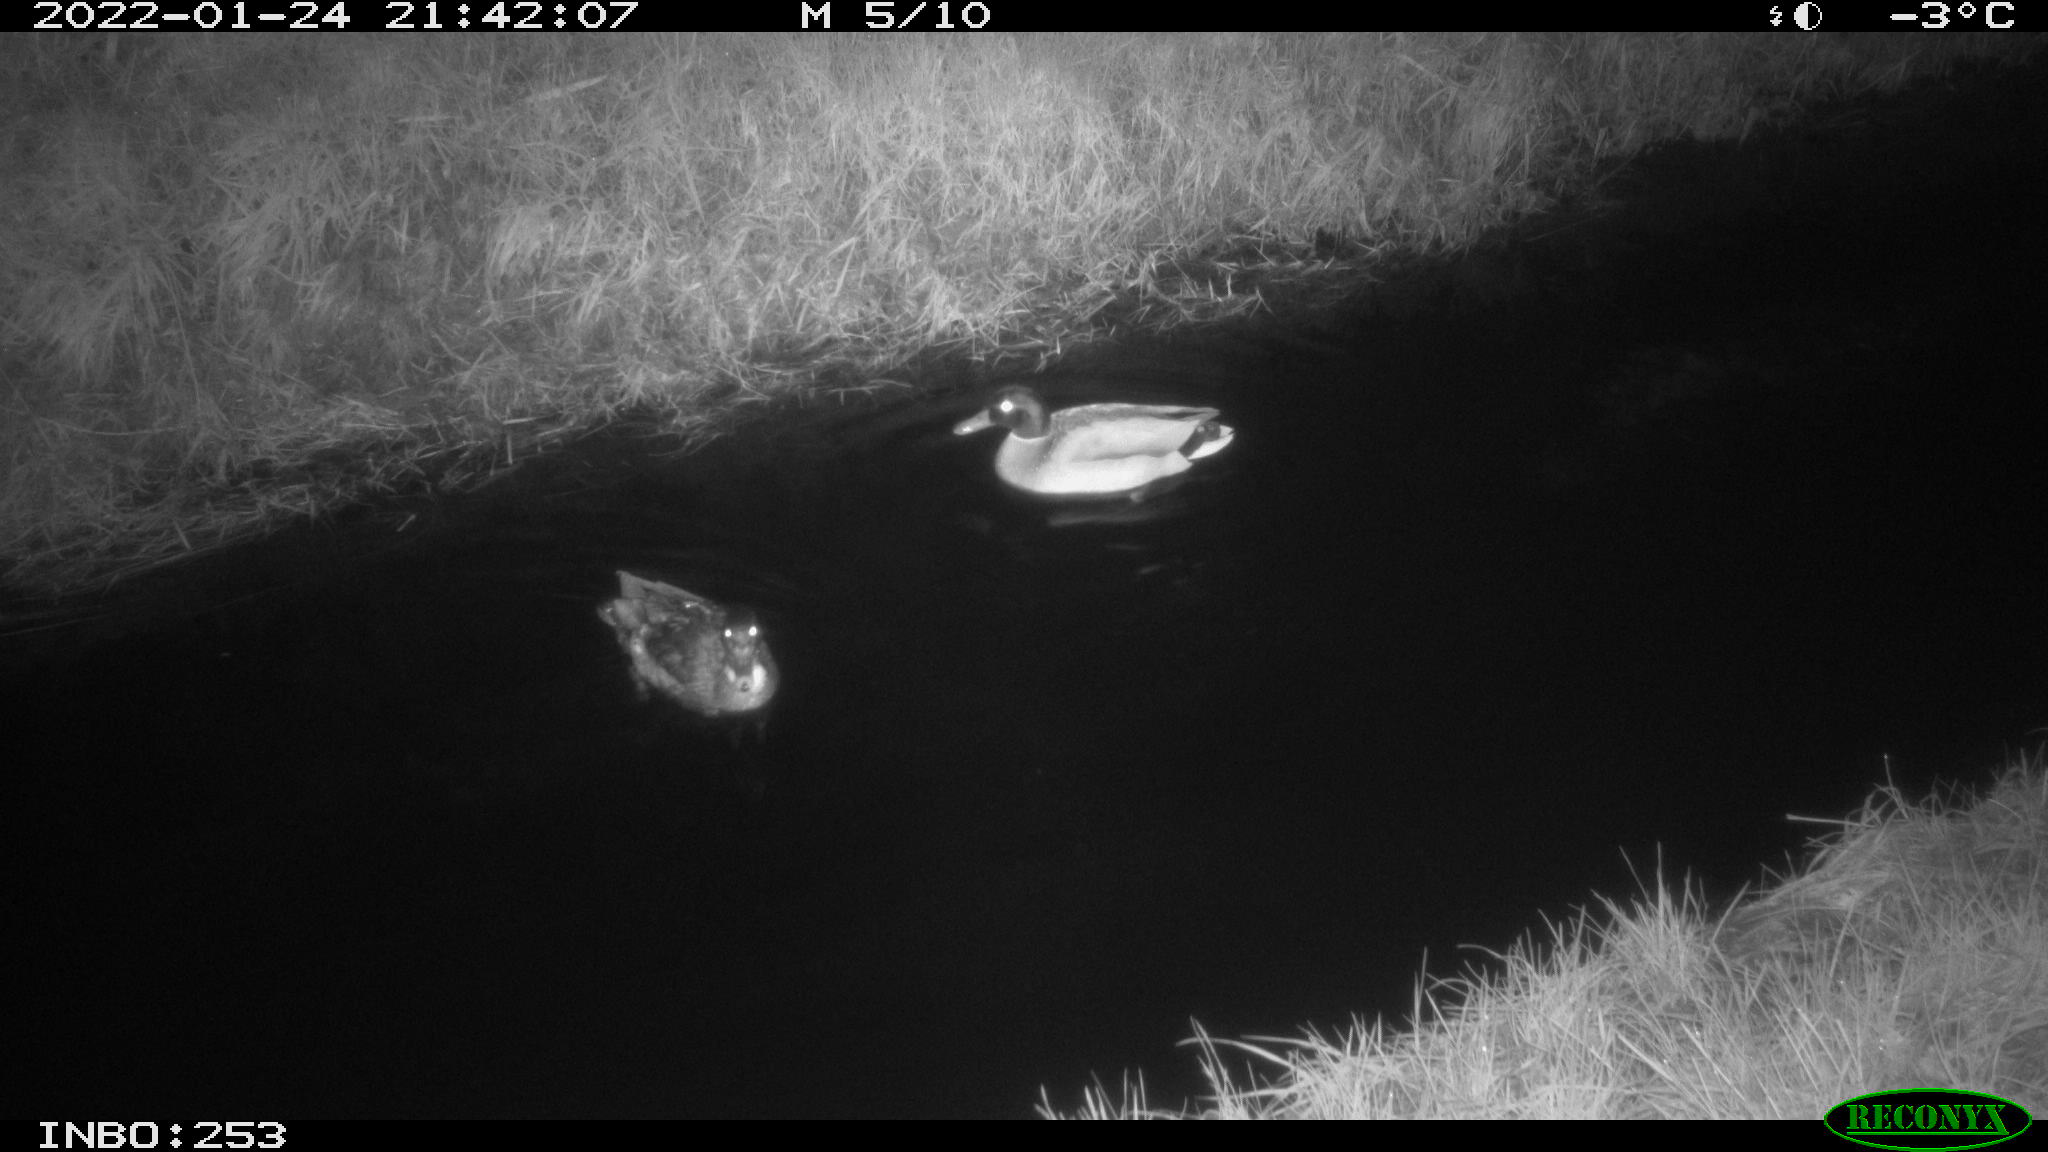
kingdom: Animalia
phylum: Chordata
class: Aves
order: Anseriformes
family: Anatidae
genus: Anas
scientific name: Anas
